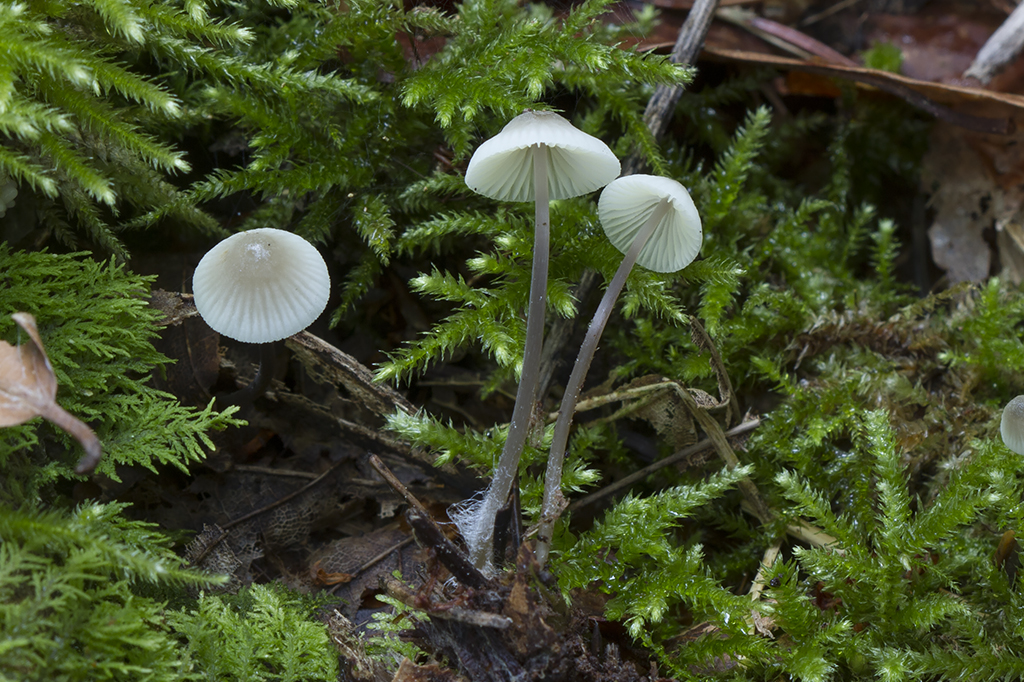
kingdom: Fungi
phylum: Basidiomycota
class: Agaricomycetes
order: Agaricales
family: Mycenaceae
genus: Mycena
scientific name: Mycena flavescens
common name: grågul huesvamp
